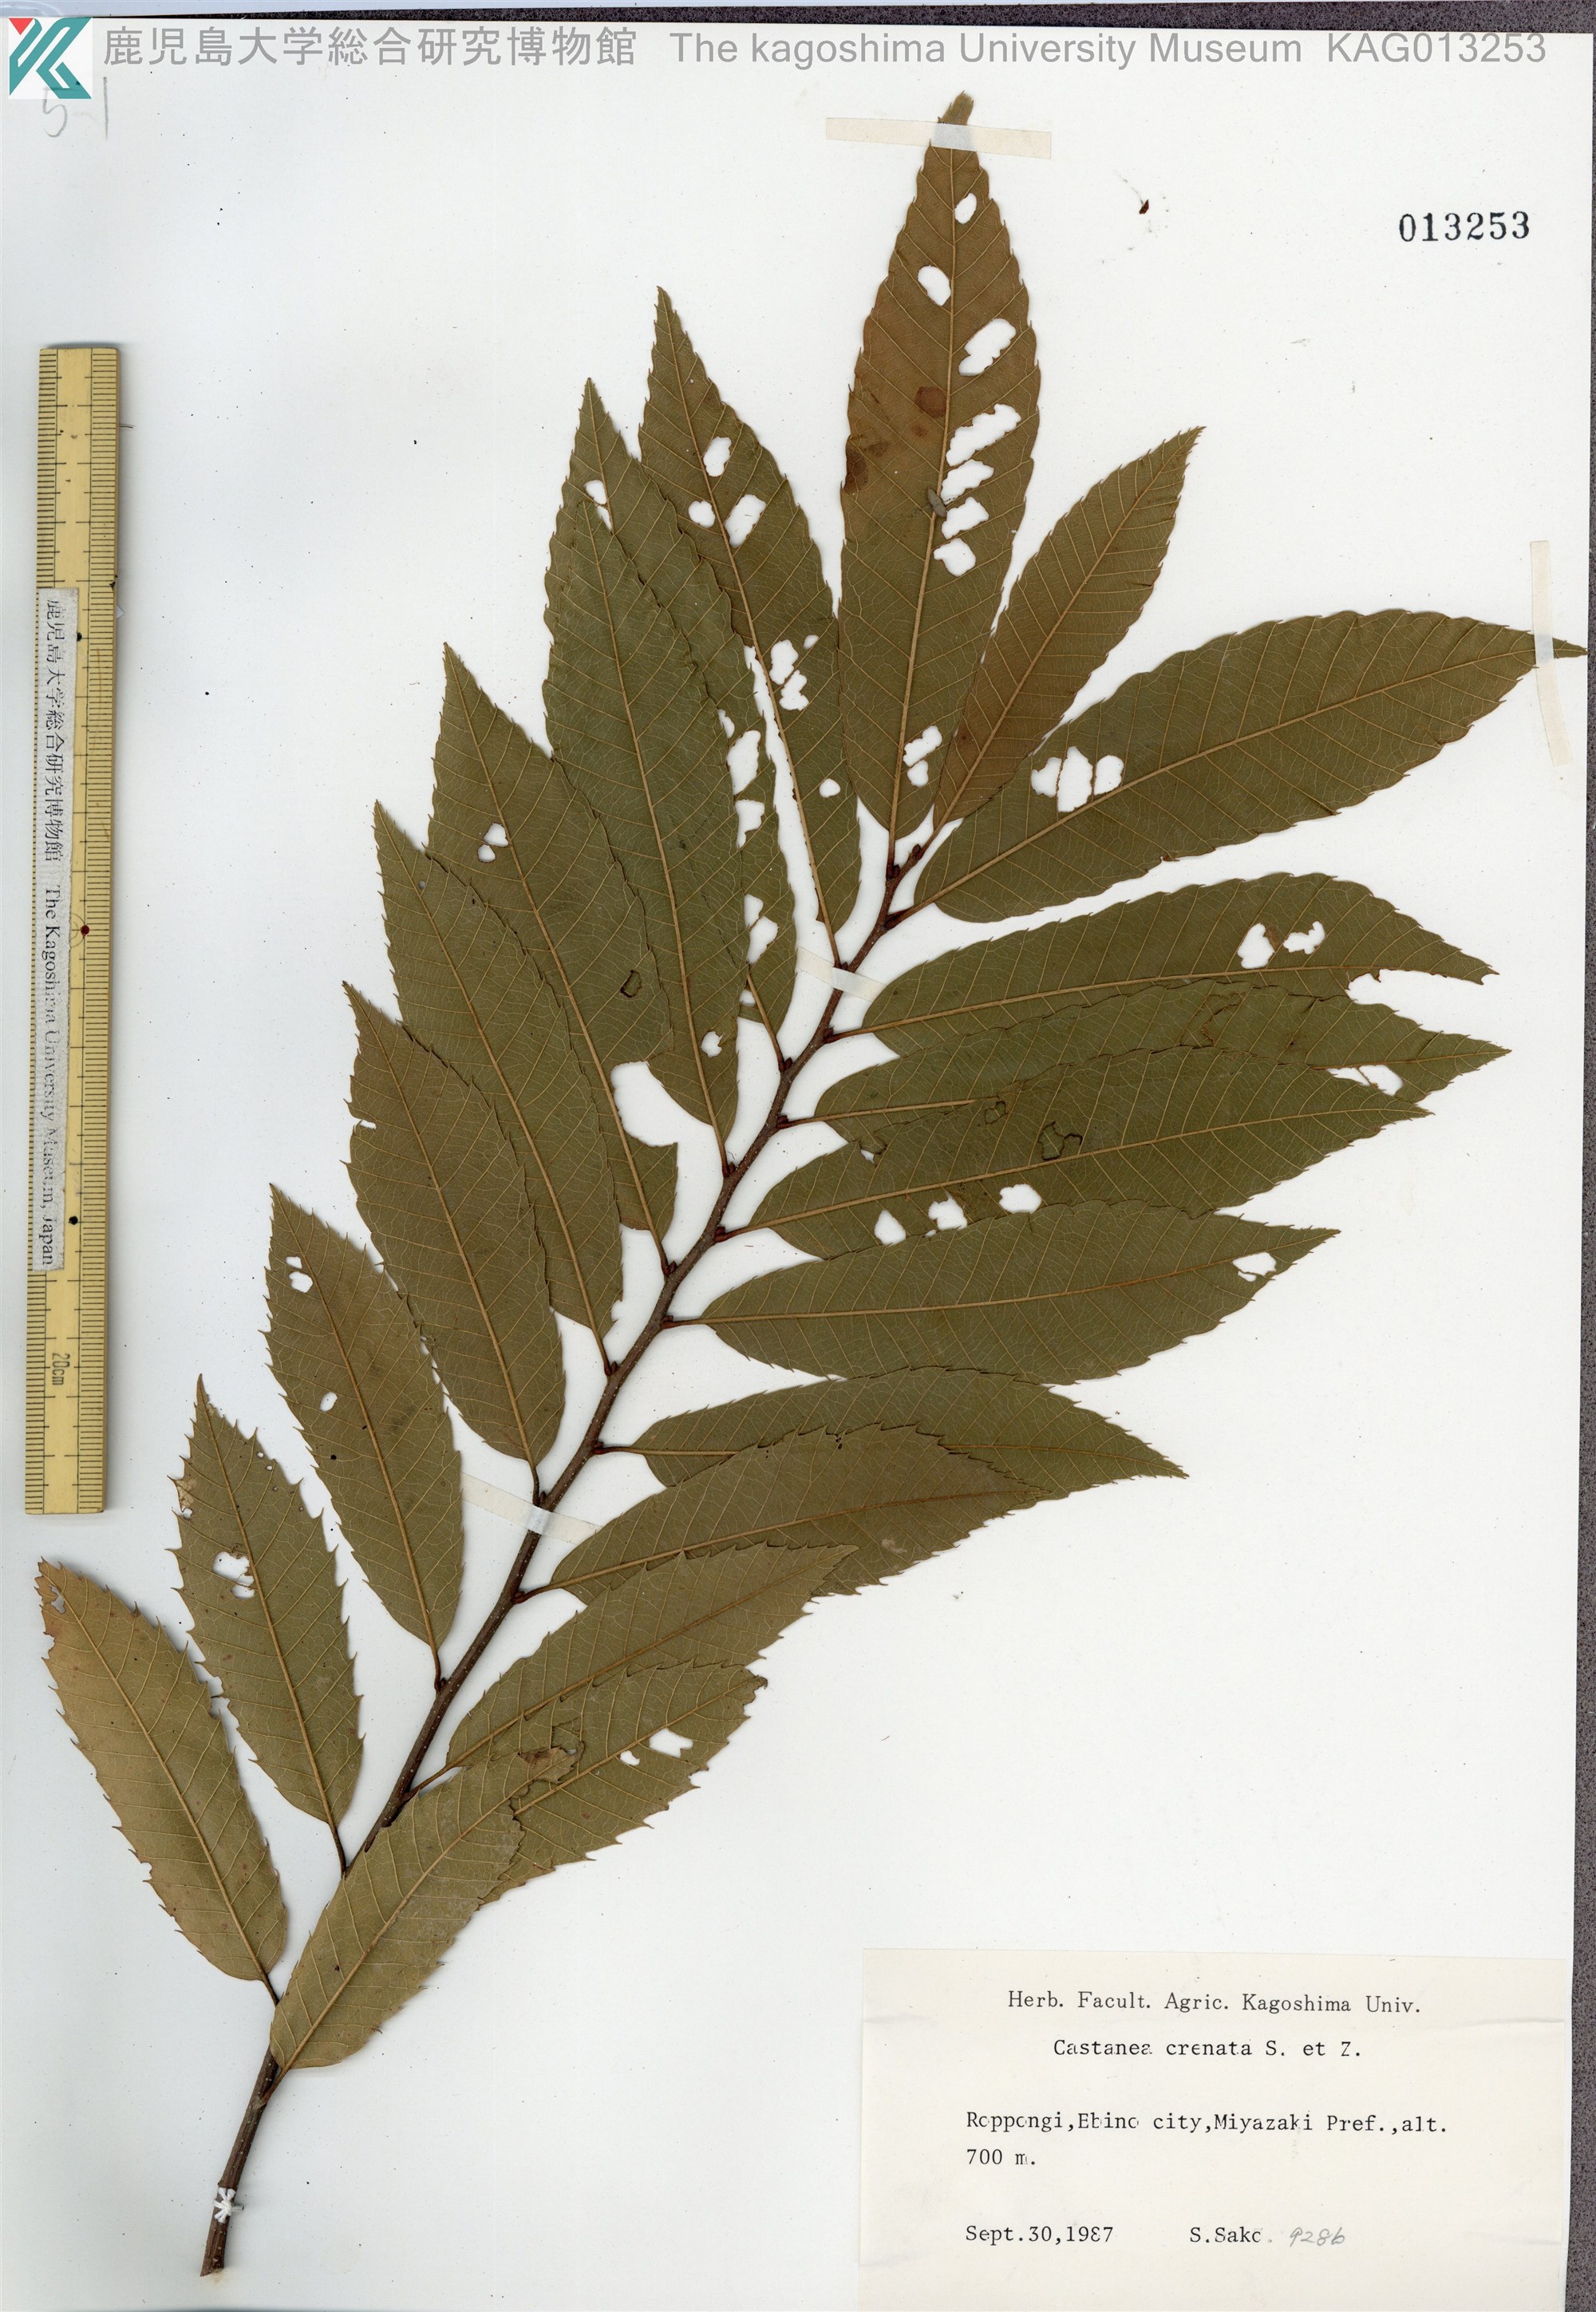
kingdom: Plantae
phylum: Tracheophyta
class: Magnoliopsida
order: Fagales
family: Fagaceae
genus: Castanea
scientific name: Castanea crenata
